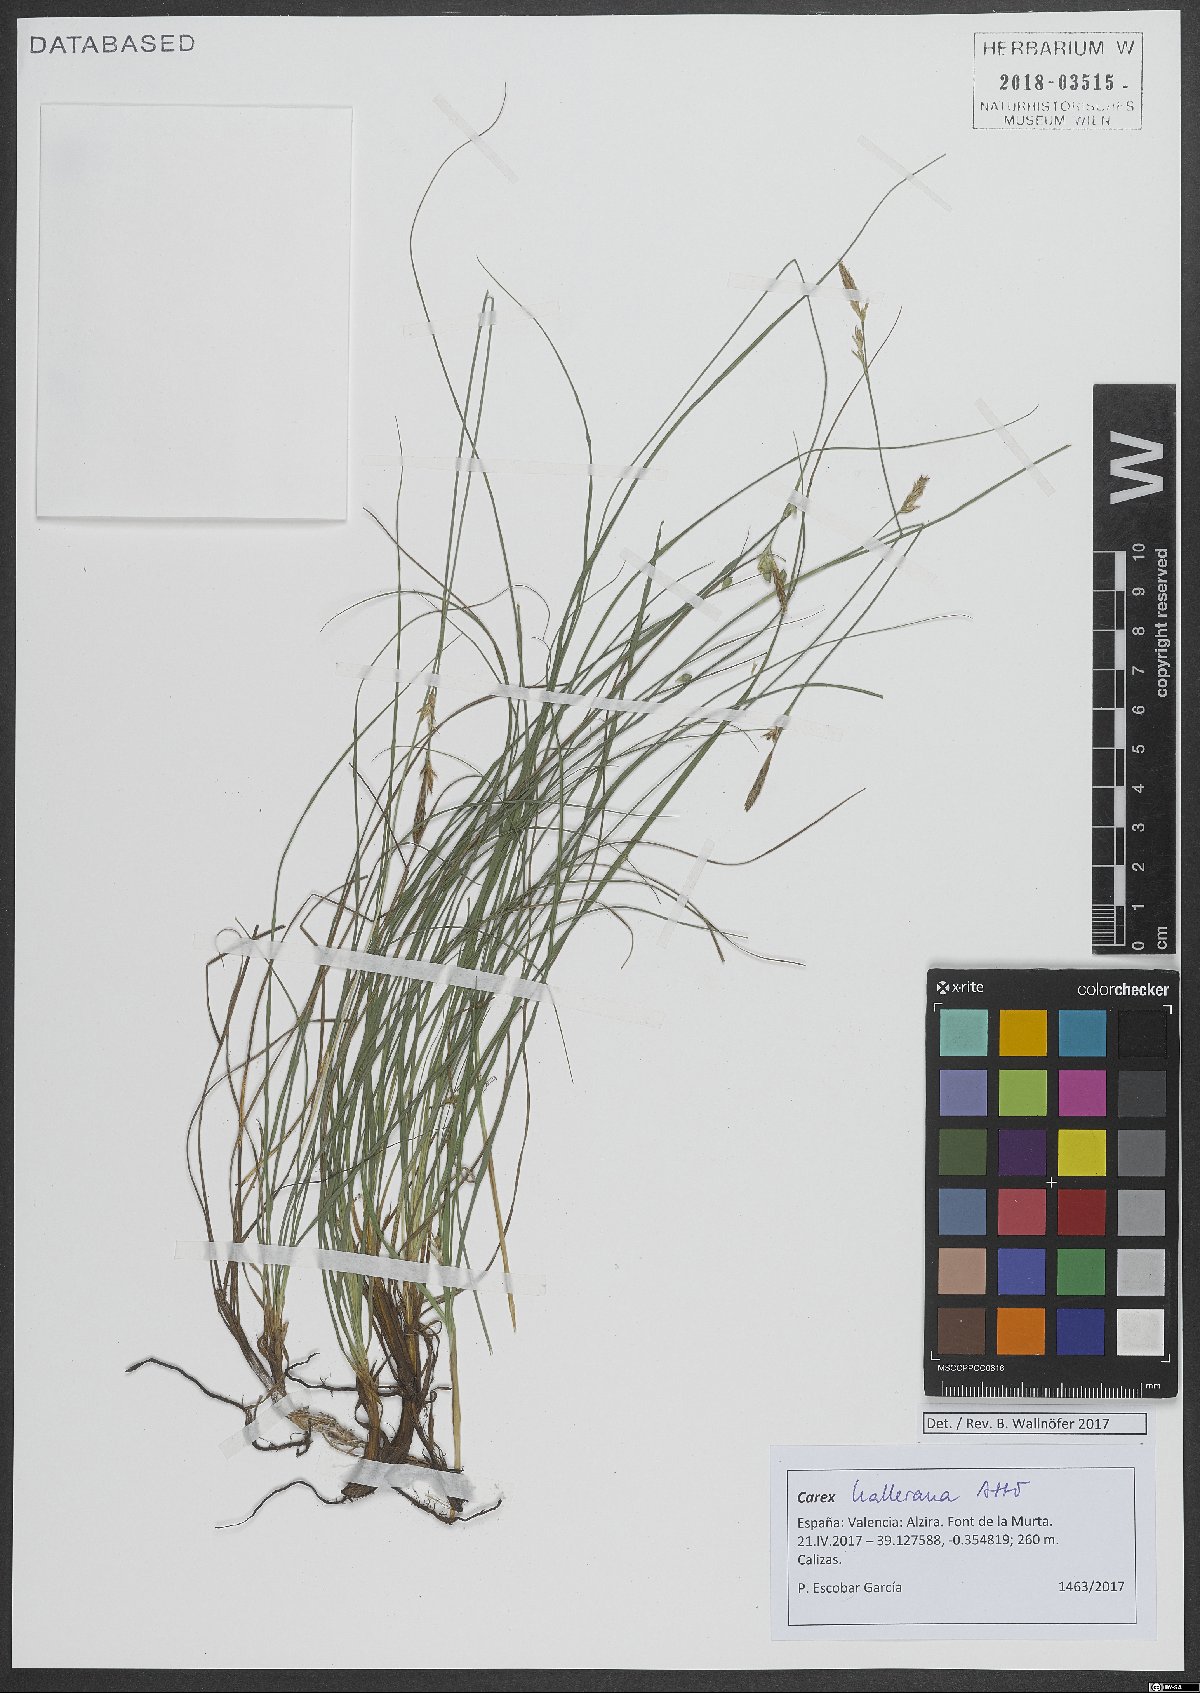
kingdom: Plantae
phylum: Tracheophyta
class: Liliopsida
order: Poales
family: Cyperaceae
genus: Carex
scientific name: Carex halleriana
